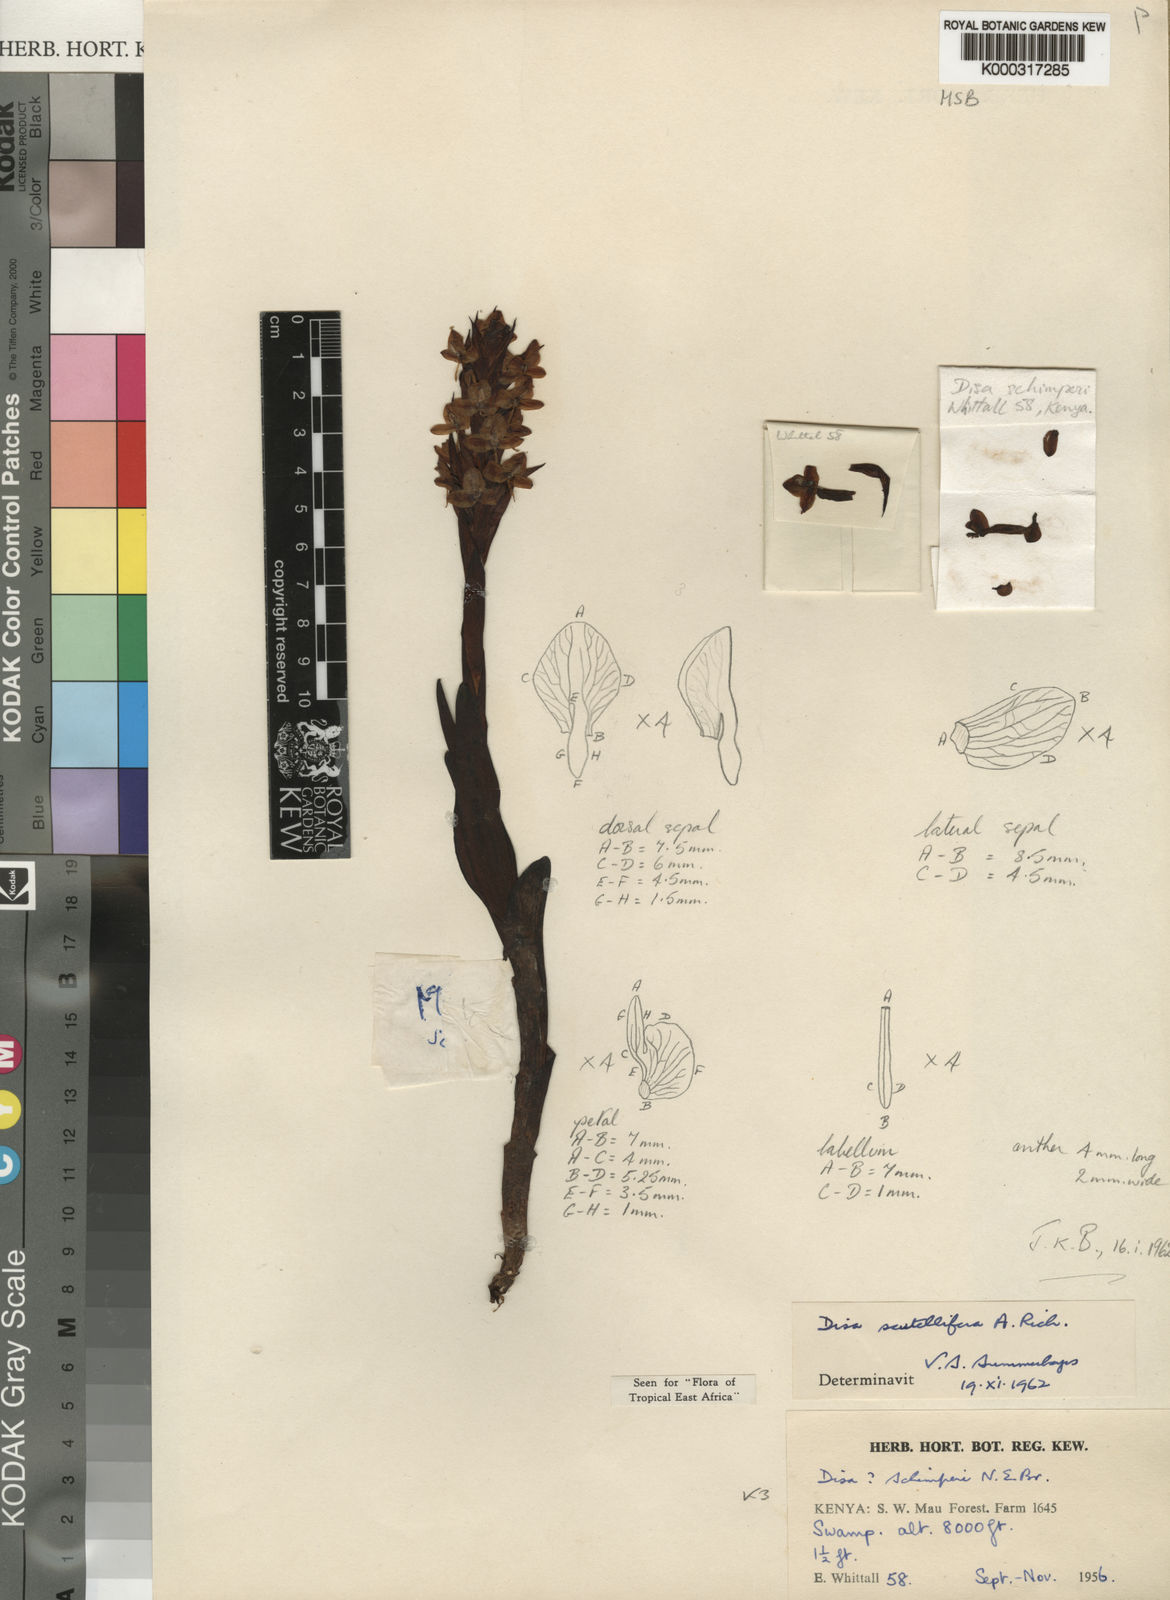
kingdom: Plantae
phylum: Tracheophyta
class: Liliopsida
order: Asparagales
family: Orchidaceae
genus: Disa
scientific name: Disa scutellifera
